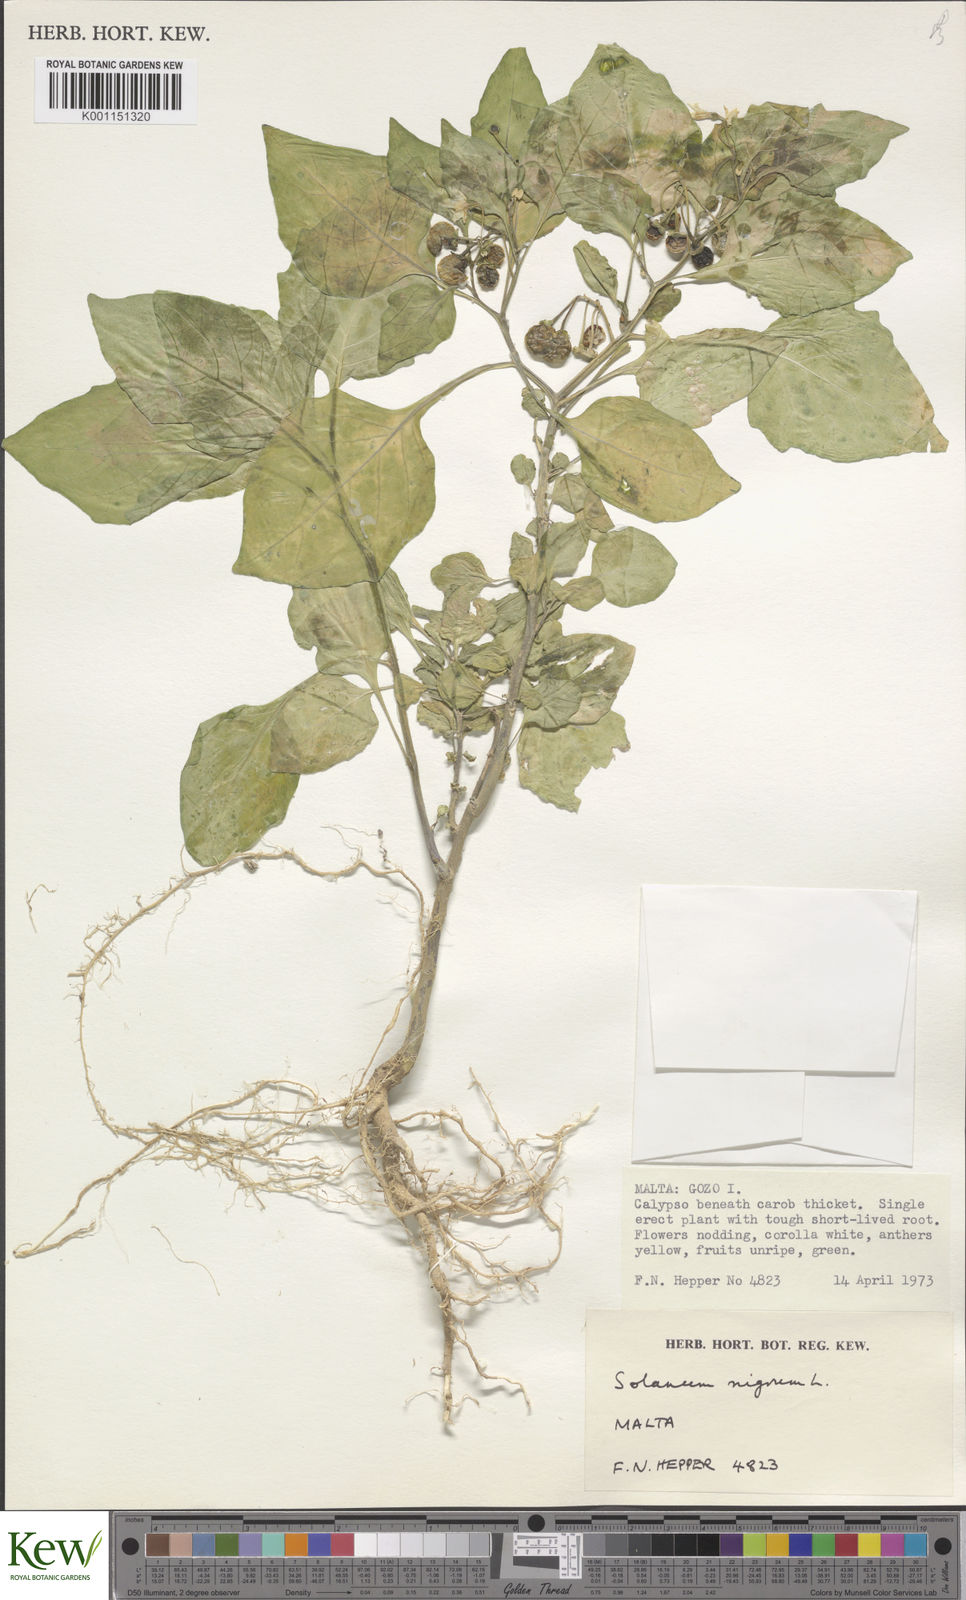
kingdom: Plantae
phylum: Tracheophyta
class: Magnoliopsida
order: Solanales
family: Solanaceae
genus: Solanum
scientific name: Solanum nigrum
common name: Black nightshade
